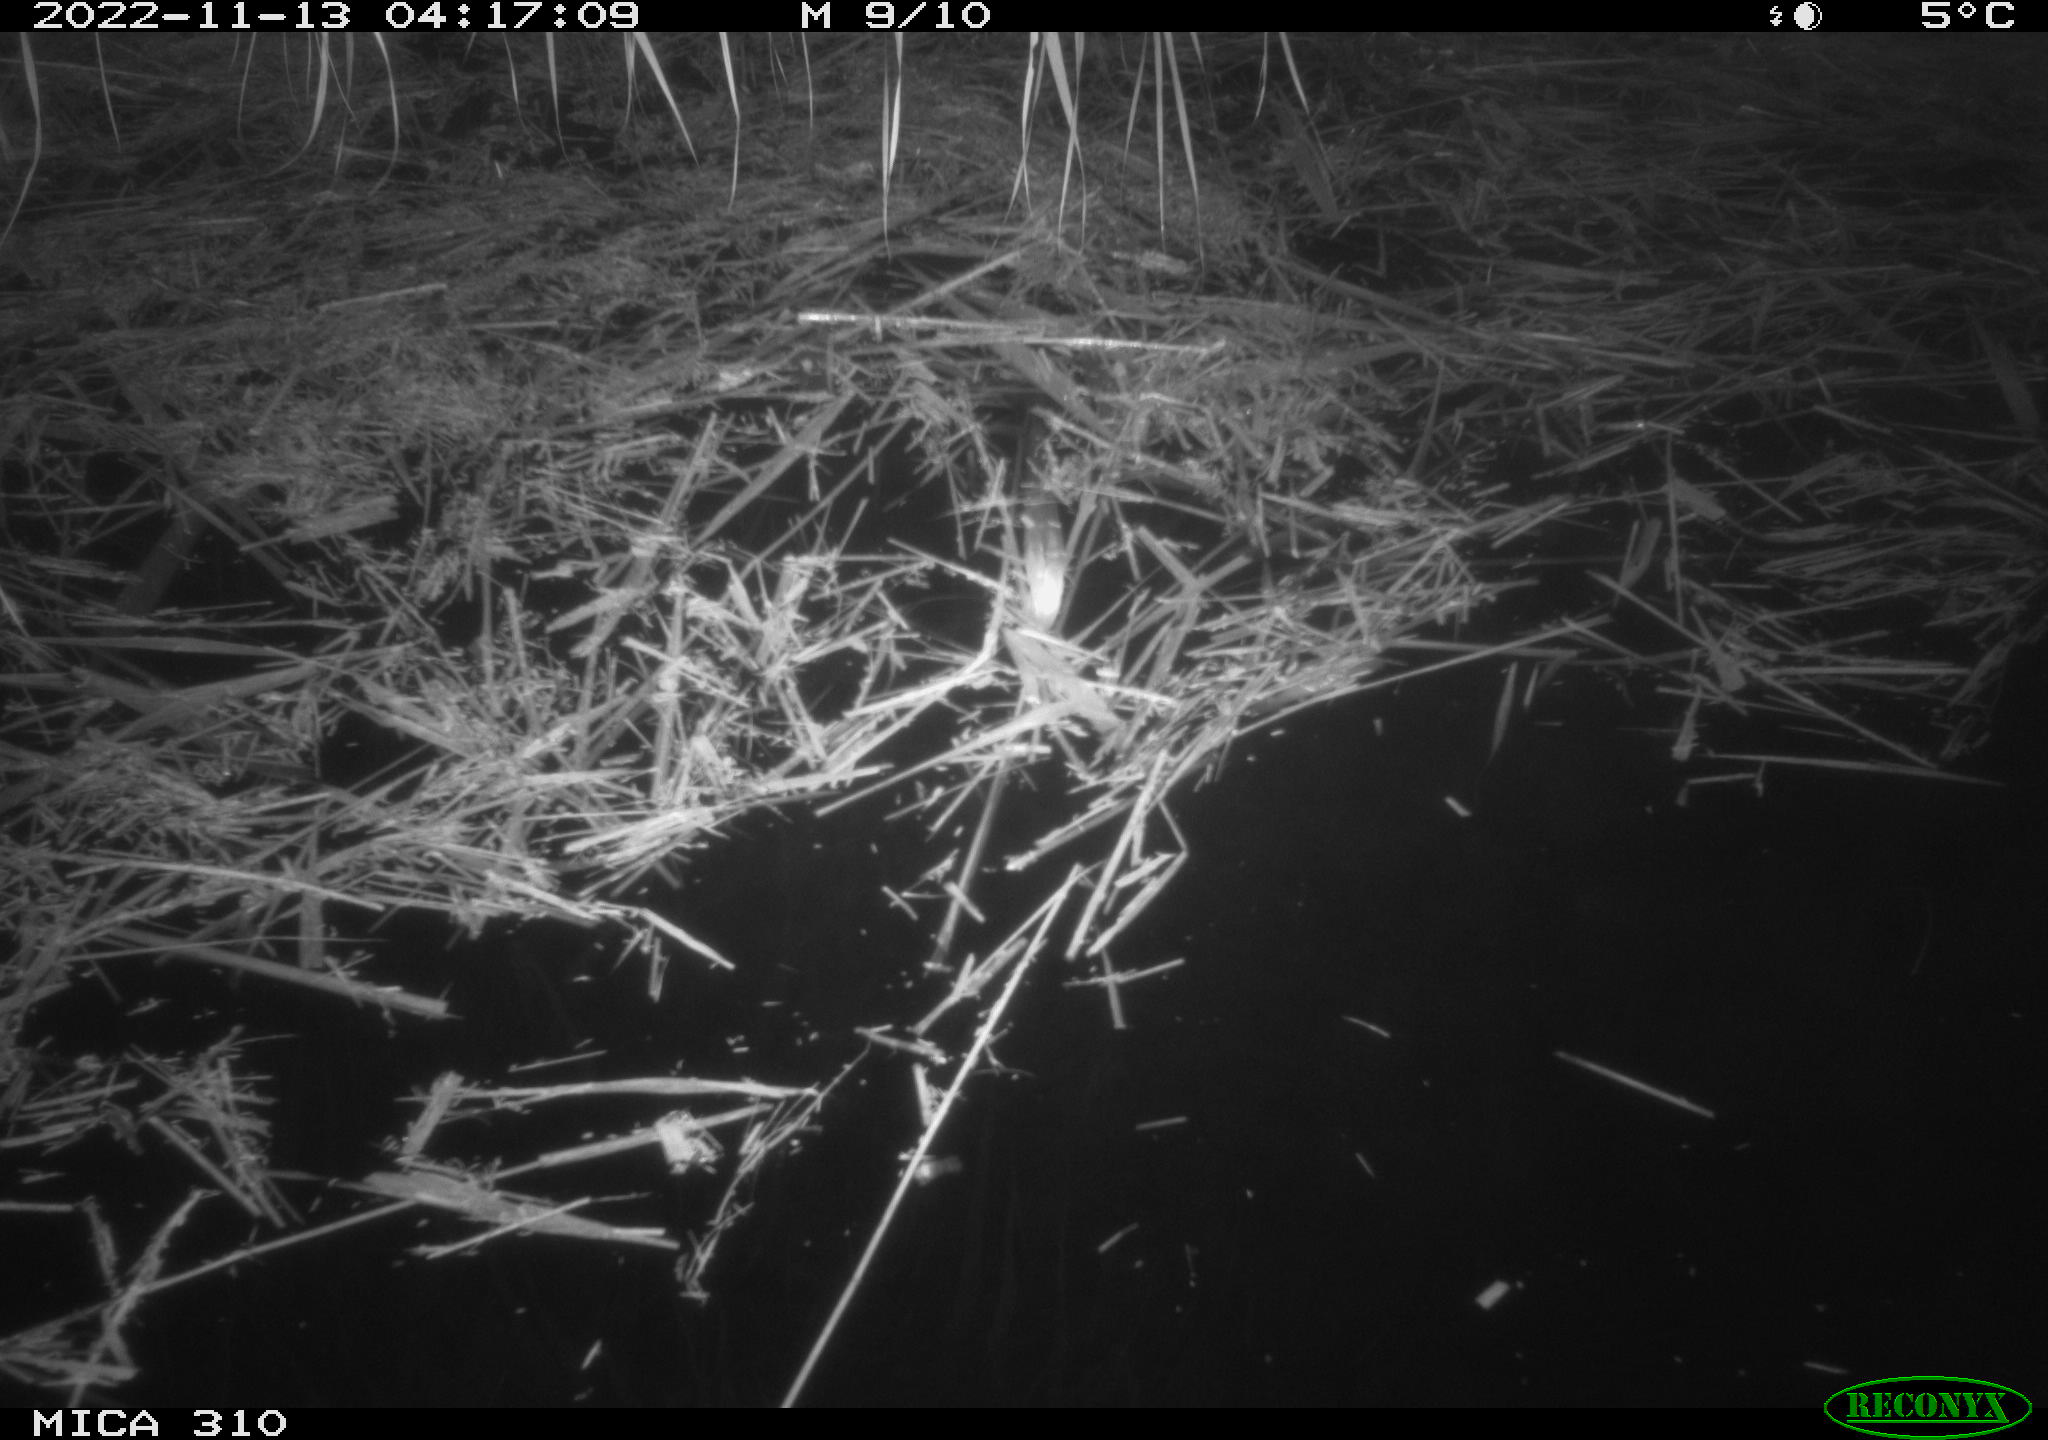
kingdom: Animalia
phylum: Chordata
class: Mammalia
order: Rodentia
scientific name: Rodentia
